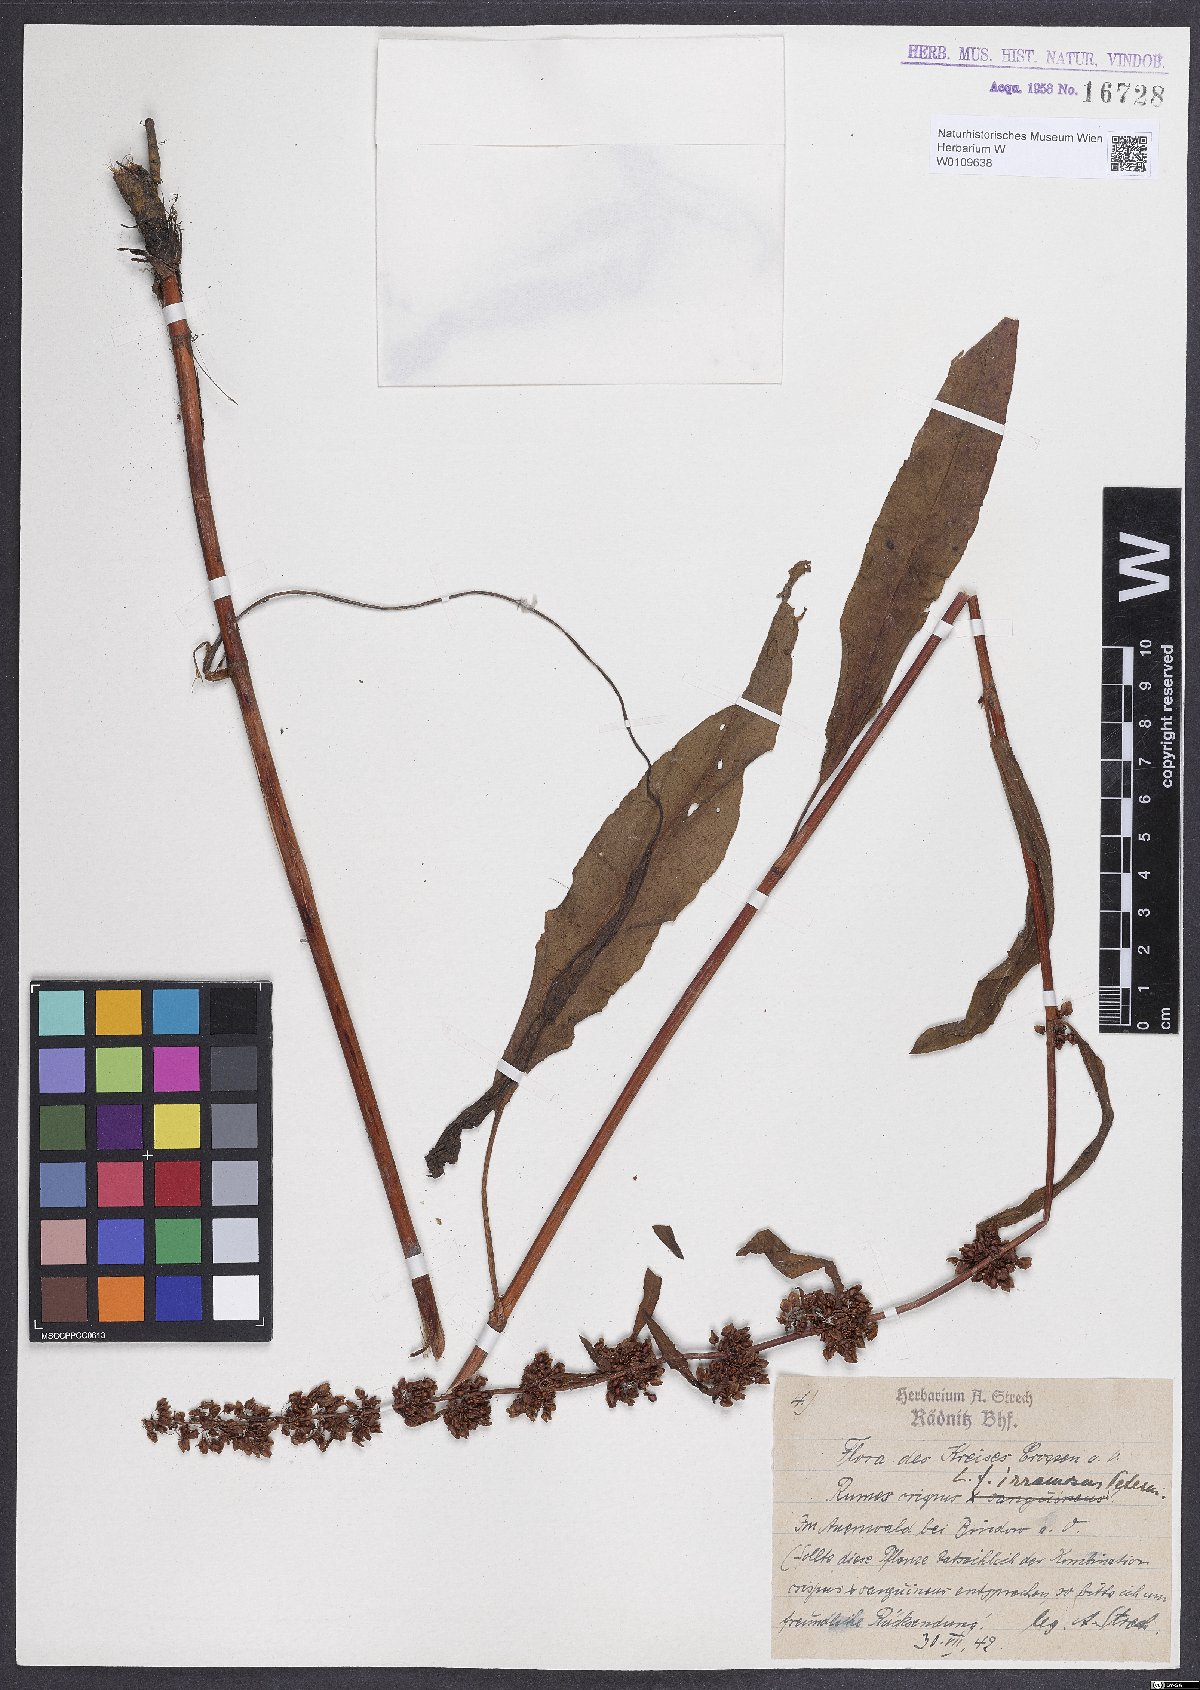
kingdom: Plantae
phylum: Tracheophyta
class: Magnoliopsida
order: Caryophyllales
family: Polygonaceae
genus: Rumex
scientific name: Rumex crispus
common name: Curled dock
